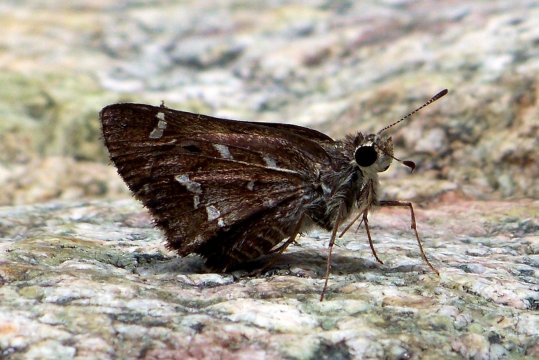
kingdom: Animalia
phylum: Arthropoda
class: Insecta
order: Lepidoptera
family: Hesperiidae
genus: Atrytonopsis
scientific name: Atrytonopsis python
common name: Cestus Skipper
